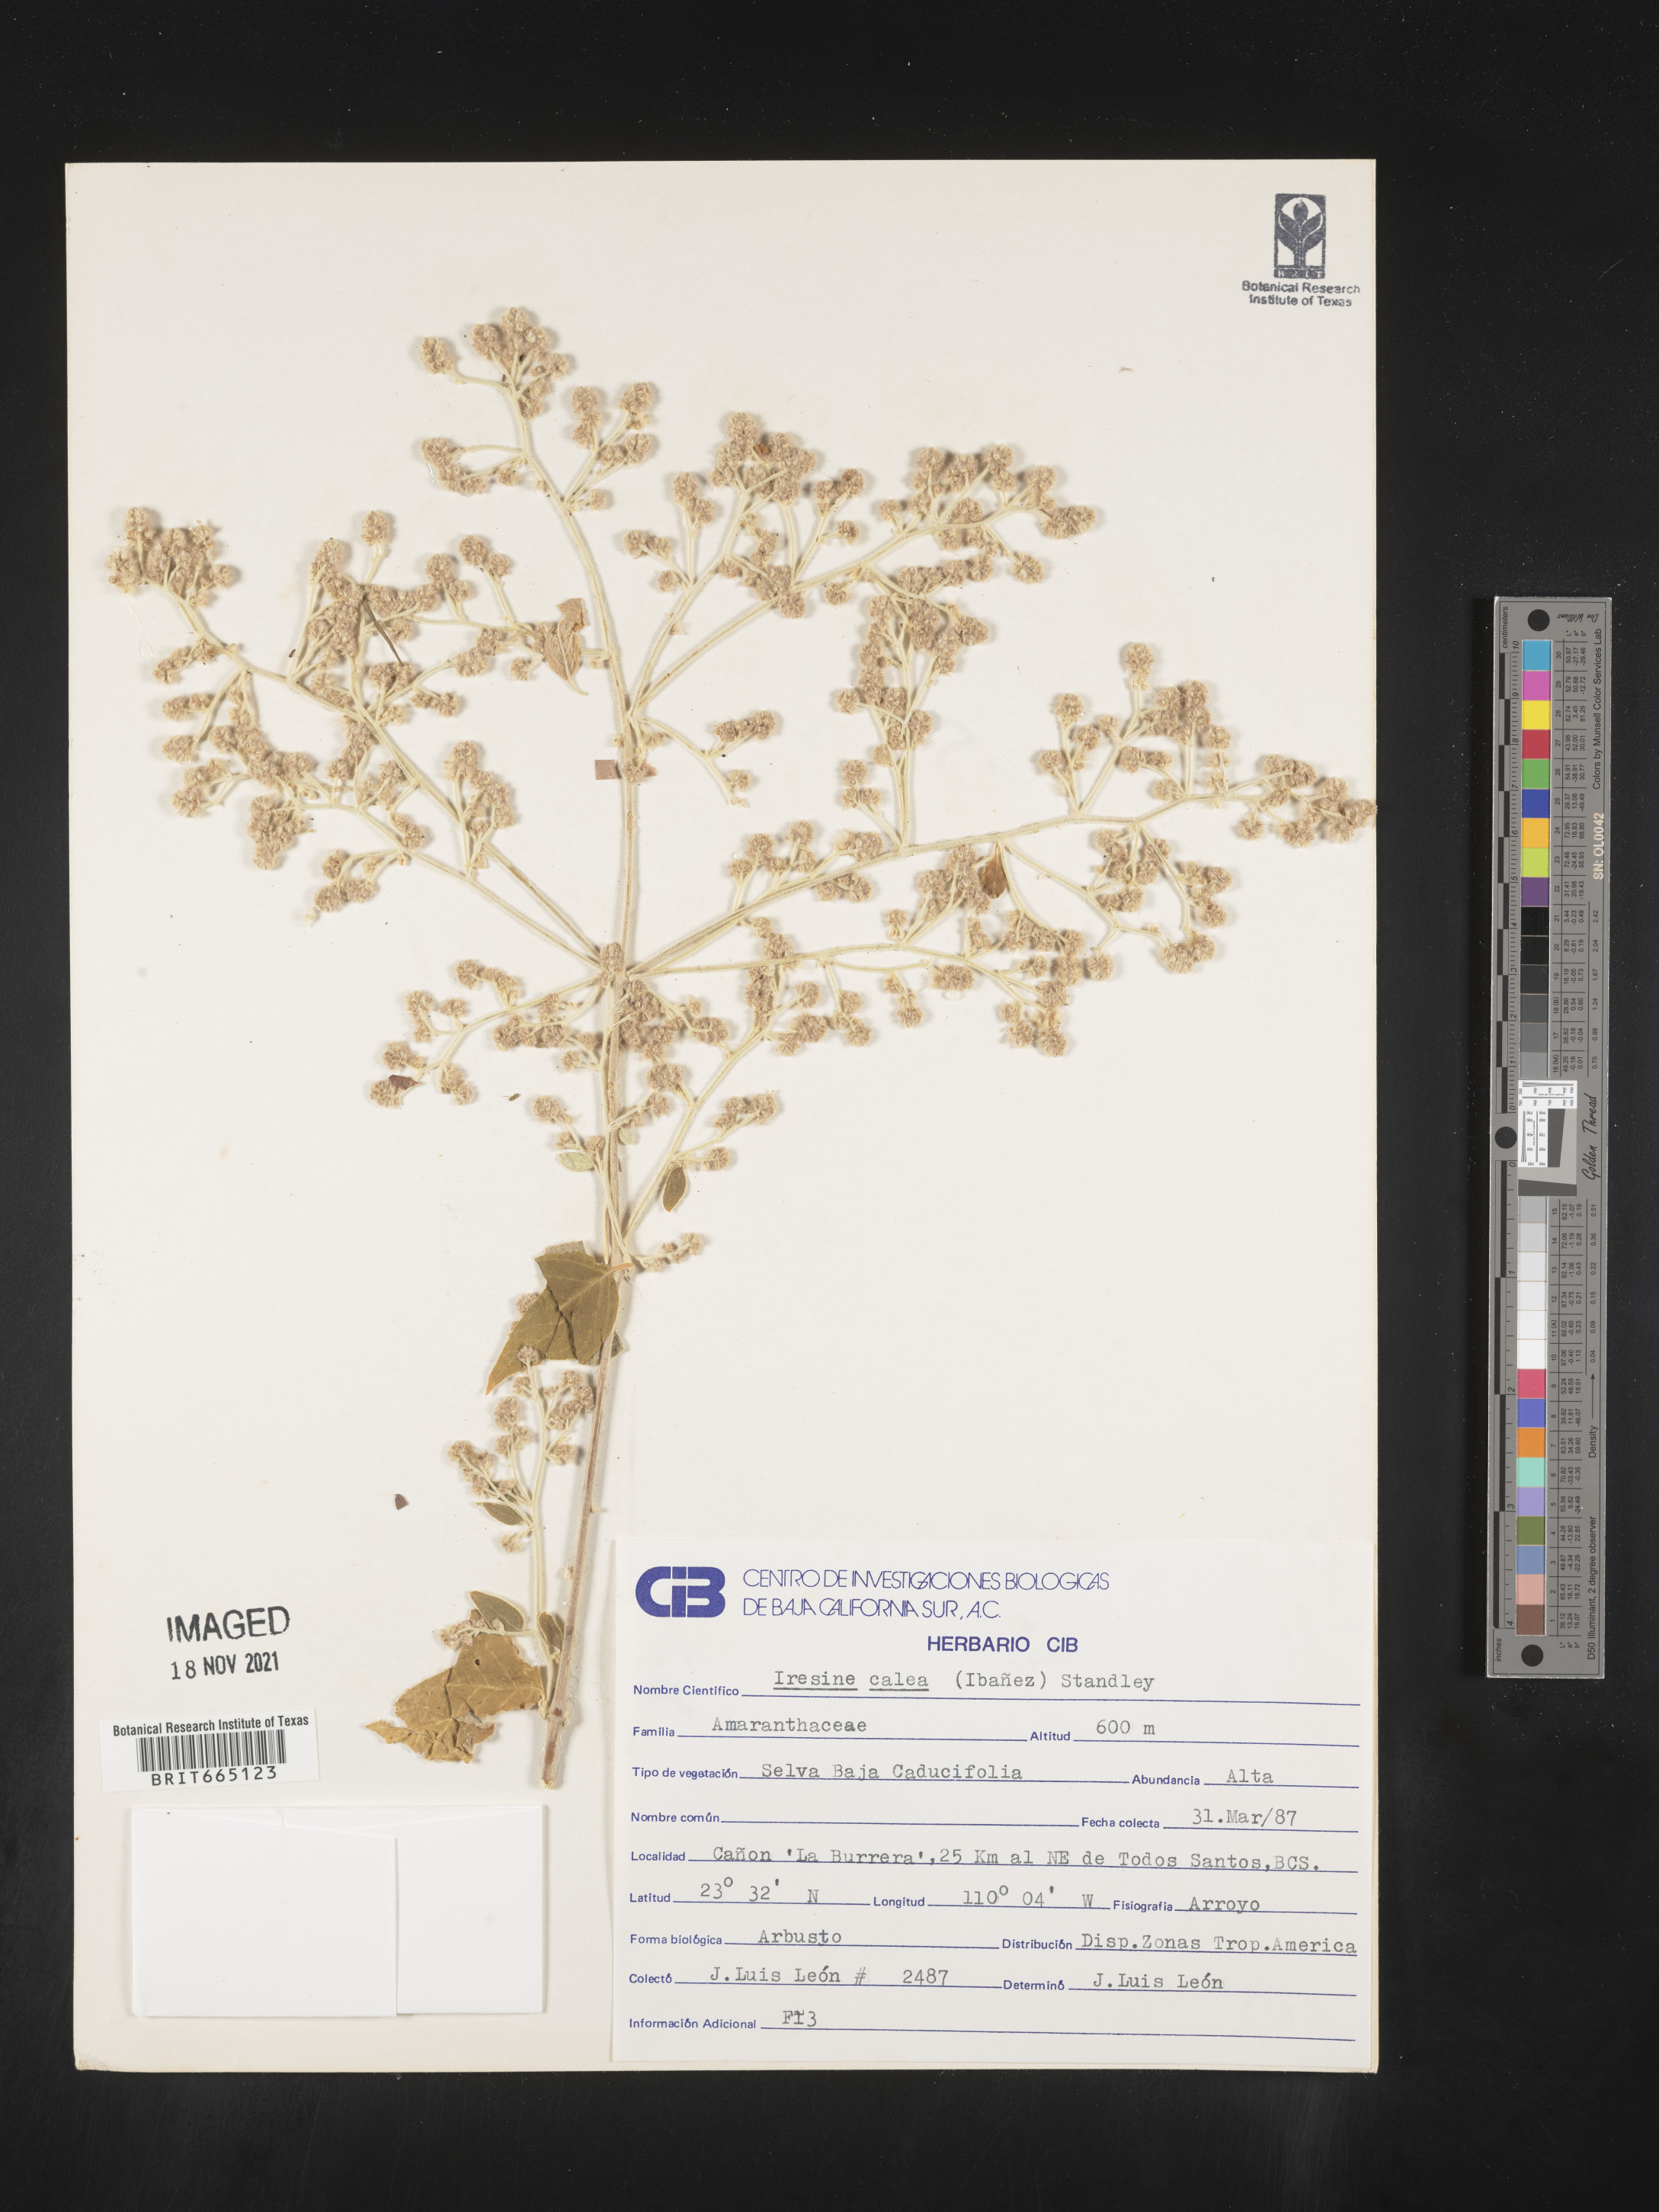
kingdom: Plantae
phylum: Tracheophyta
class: Magnoliopsida
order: Caryophyllales
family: Amaranthaceae
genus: Iresine
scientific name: Iresine
